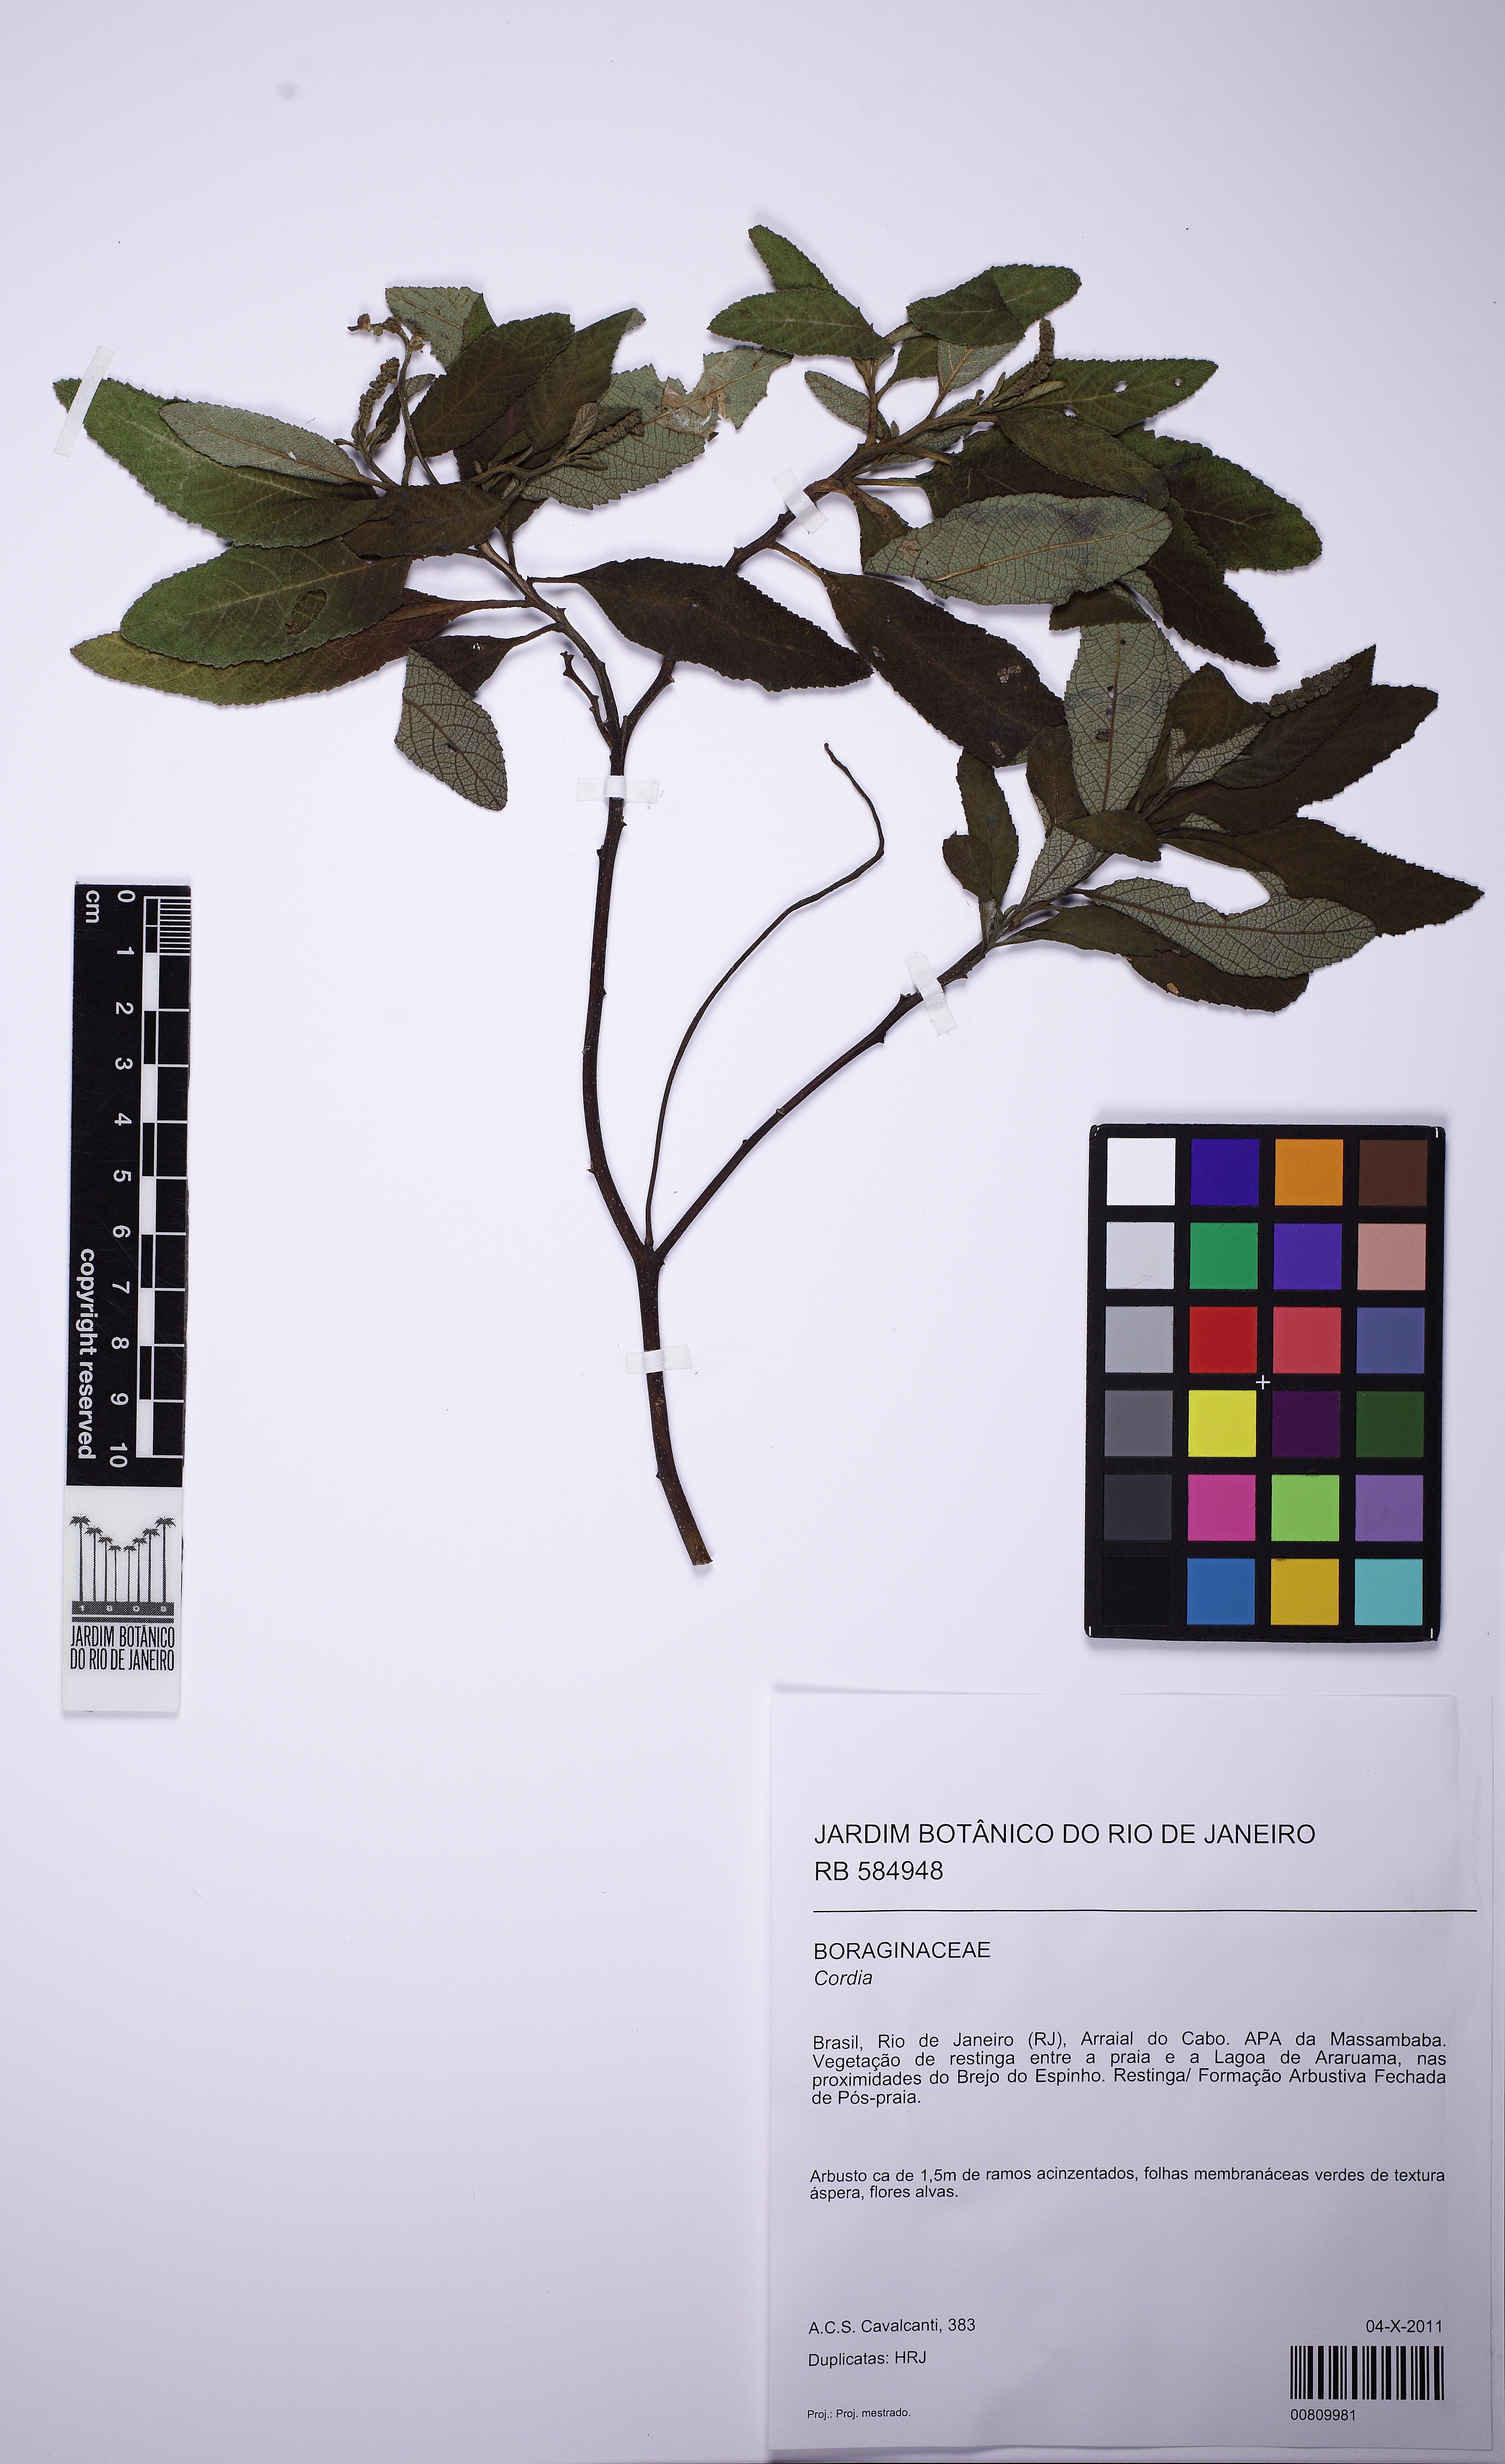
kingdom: Plantae
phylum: Tracheophyta
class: Magnoliopsida
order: Boraginales
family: Cordiaceae
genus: Cordia
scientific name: Cordia
